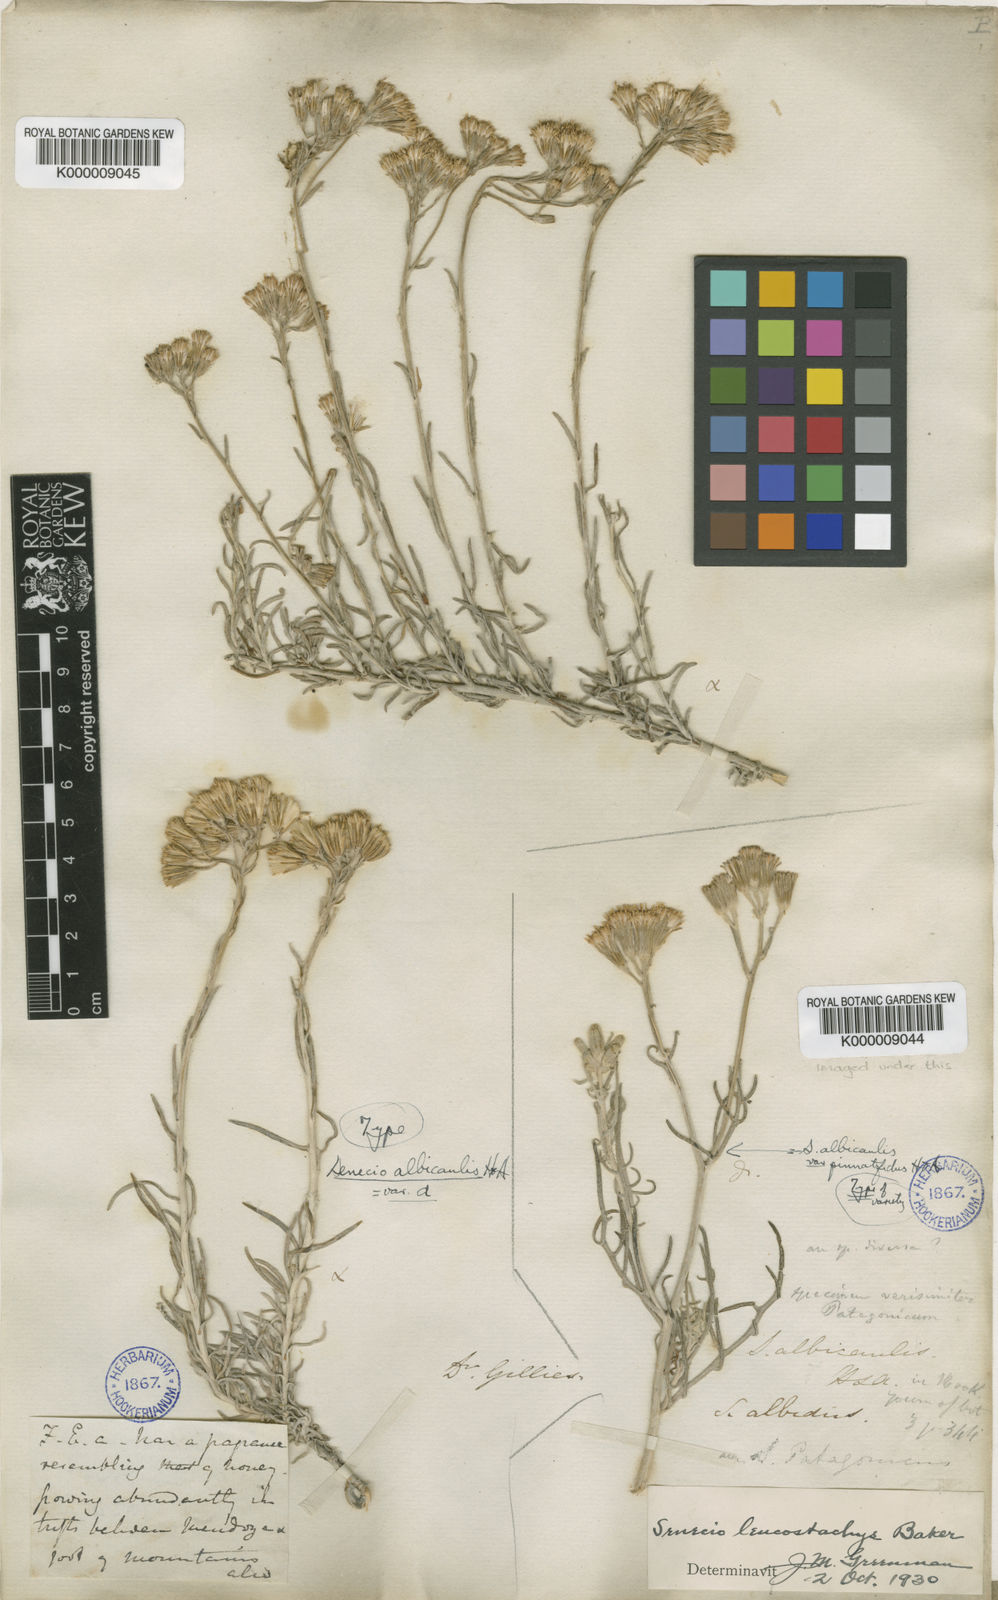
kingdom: Plantae
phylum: Tracheophyta
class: Magnoliopsida
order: Asterales
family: Asteraceae
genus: Senecio
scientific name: Senecio filaginoides
